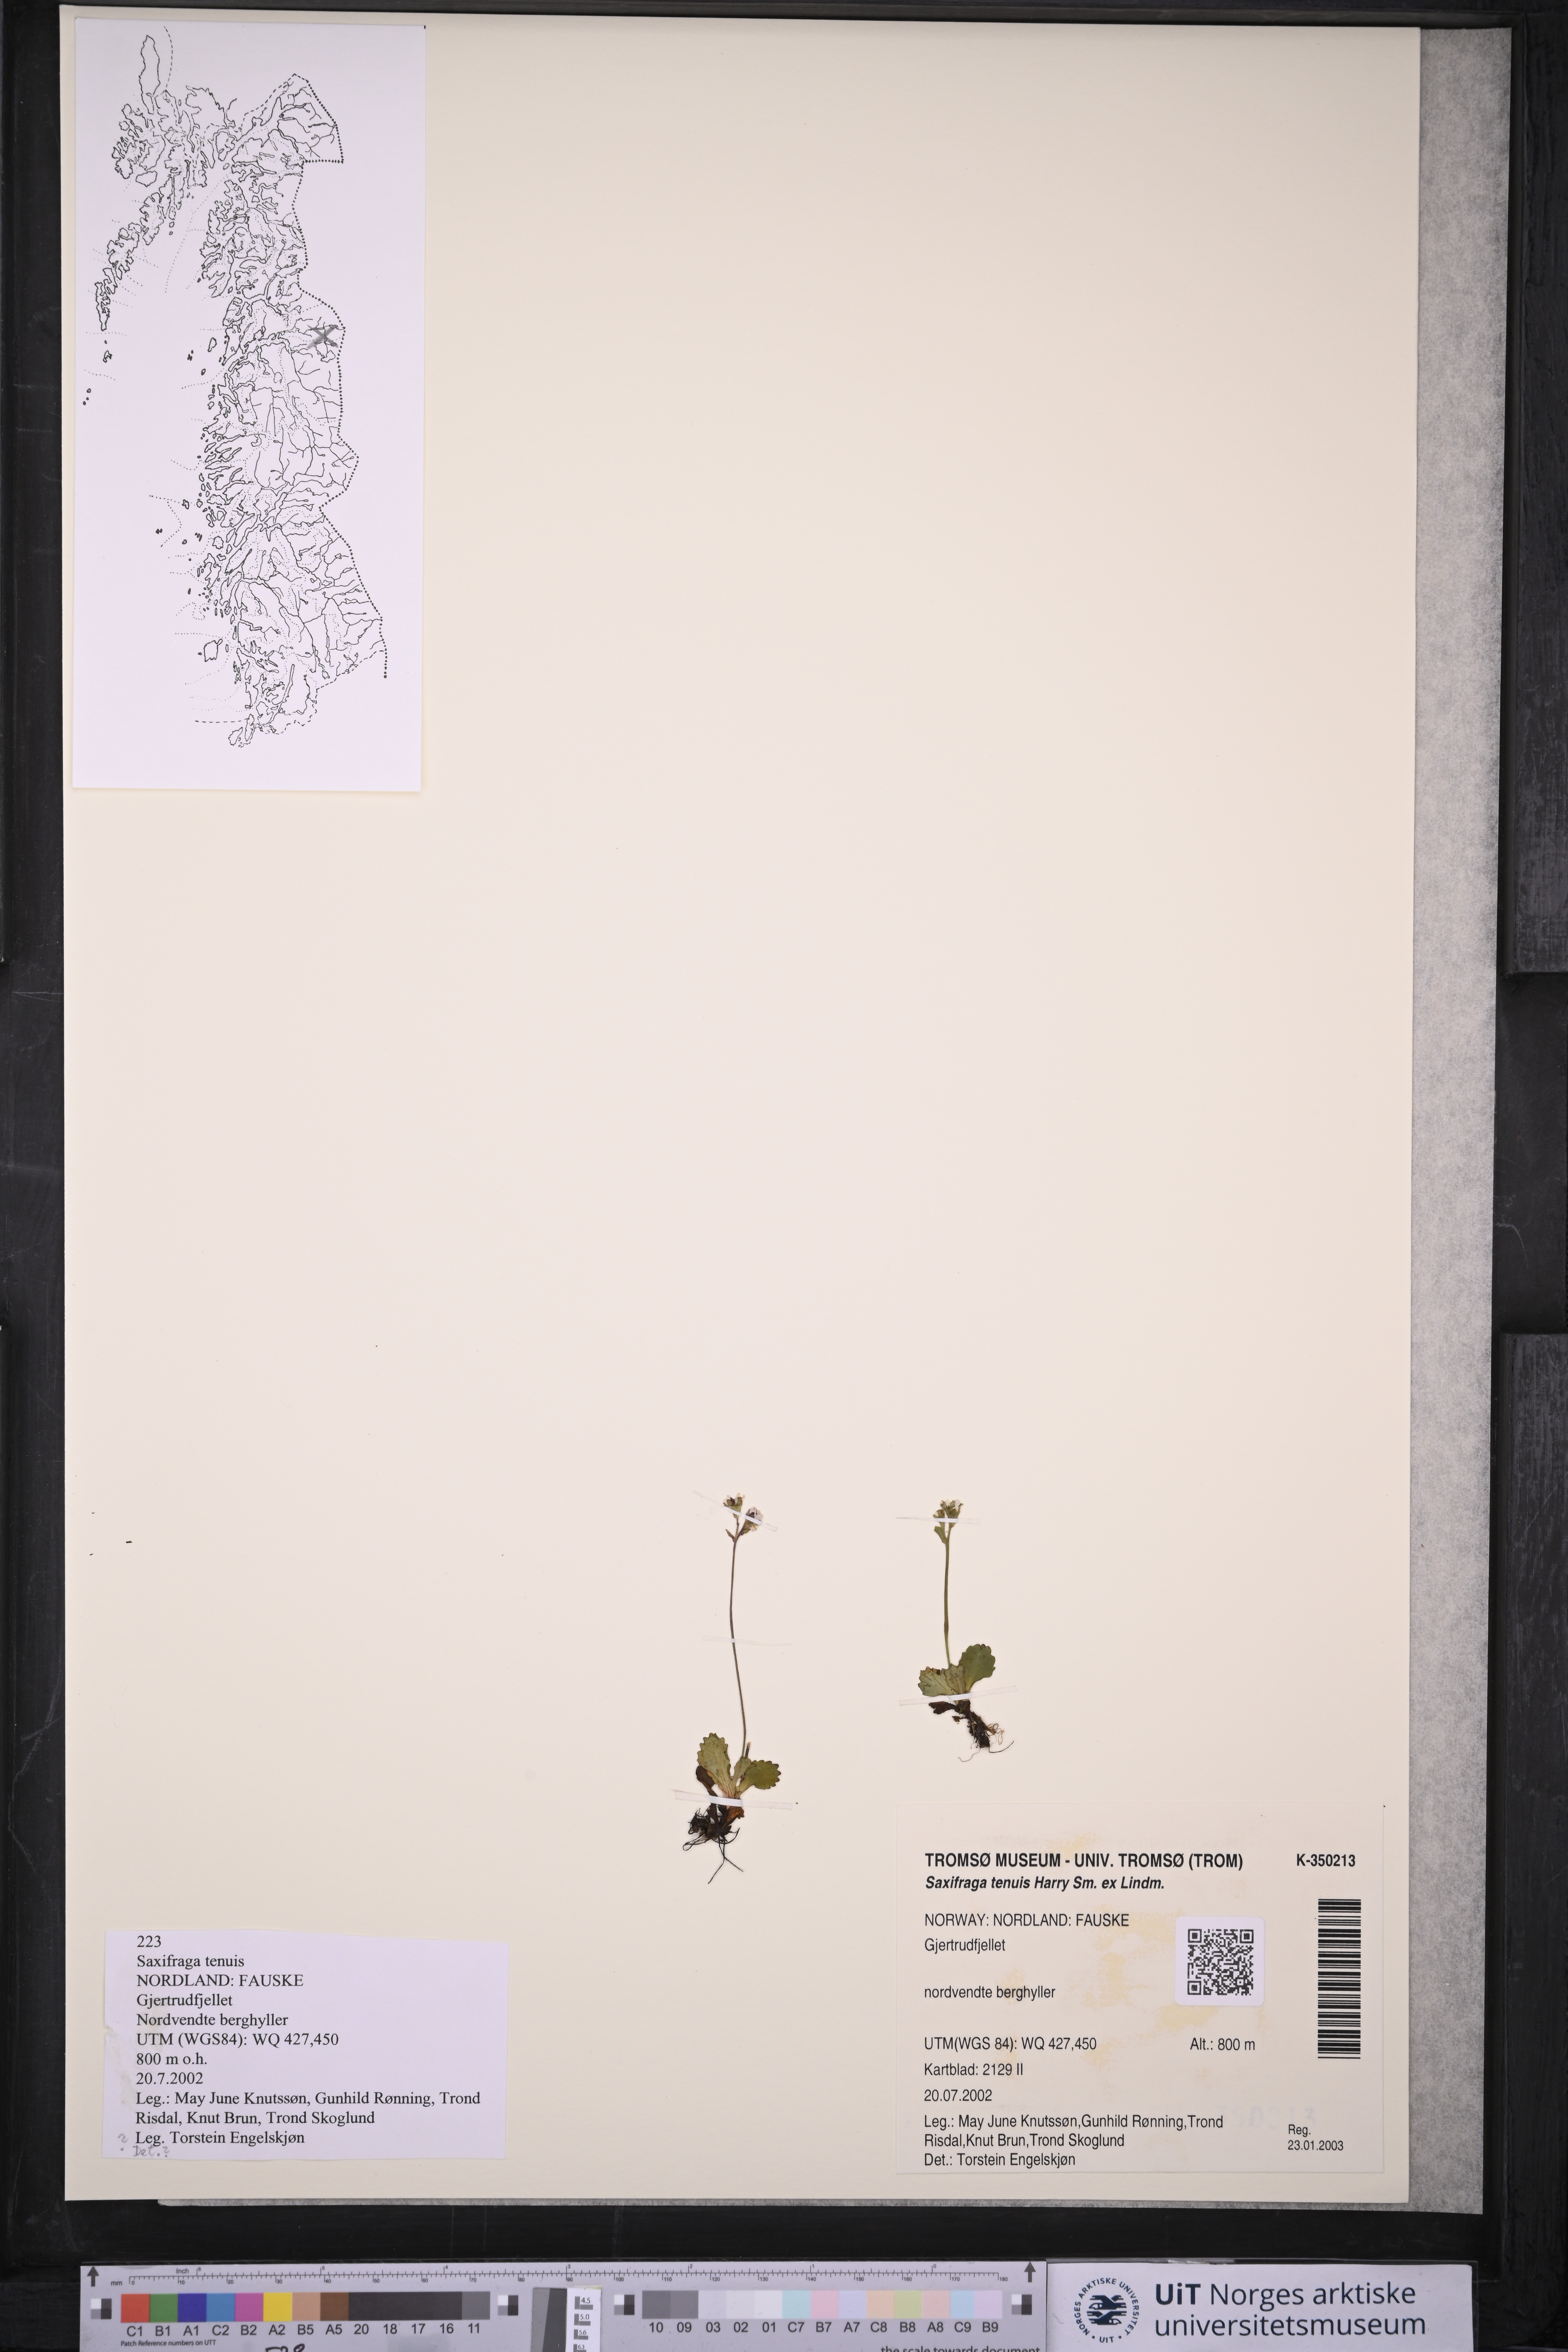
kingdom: Plantae
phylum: Tracheophyta
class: Magnoliopsida
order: Saxifragales
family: Saxifragaceae
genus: Micranthes
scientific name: Micranthes tenuis
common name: Ottertail pass saxifrage
